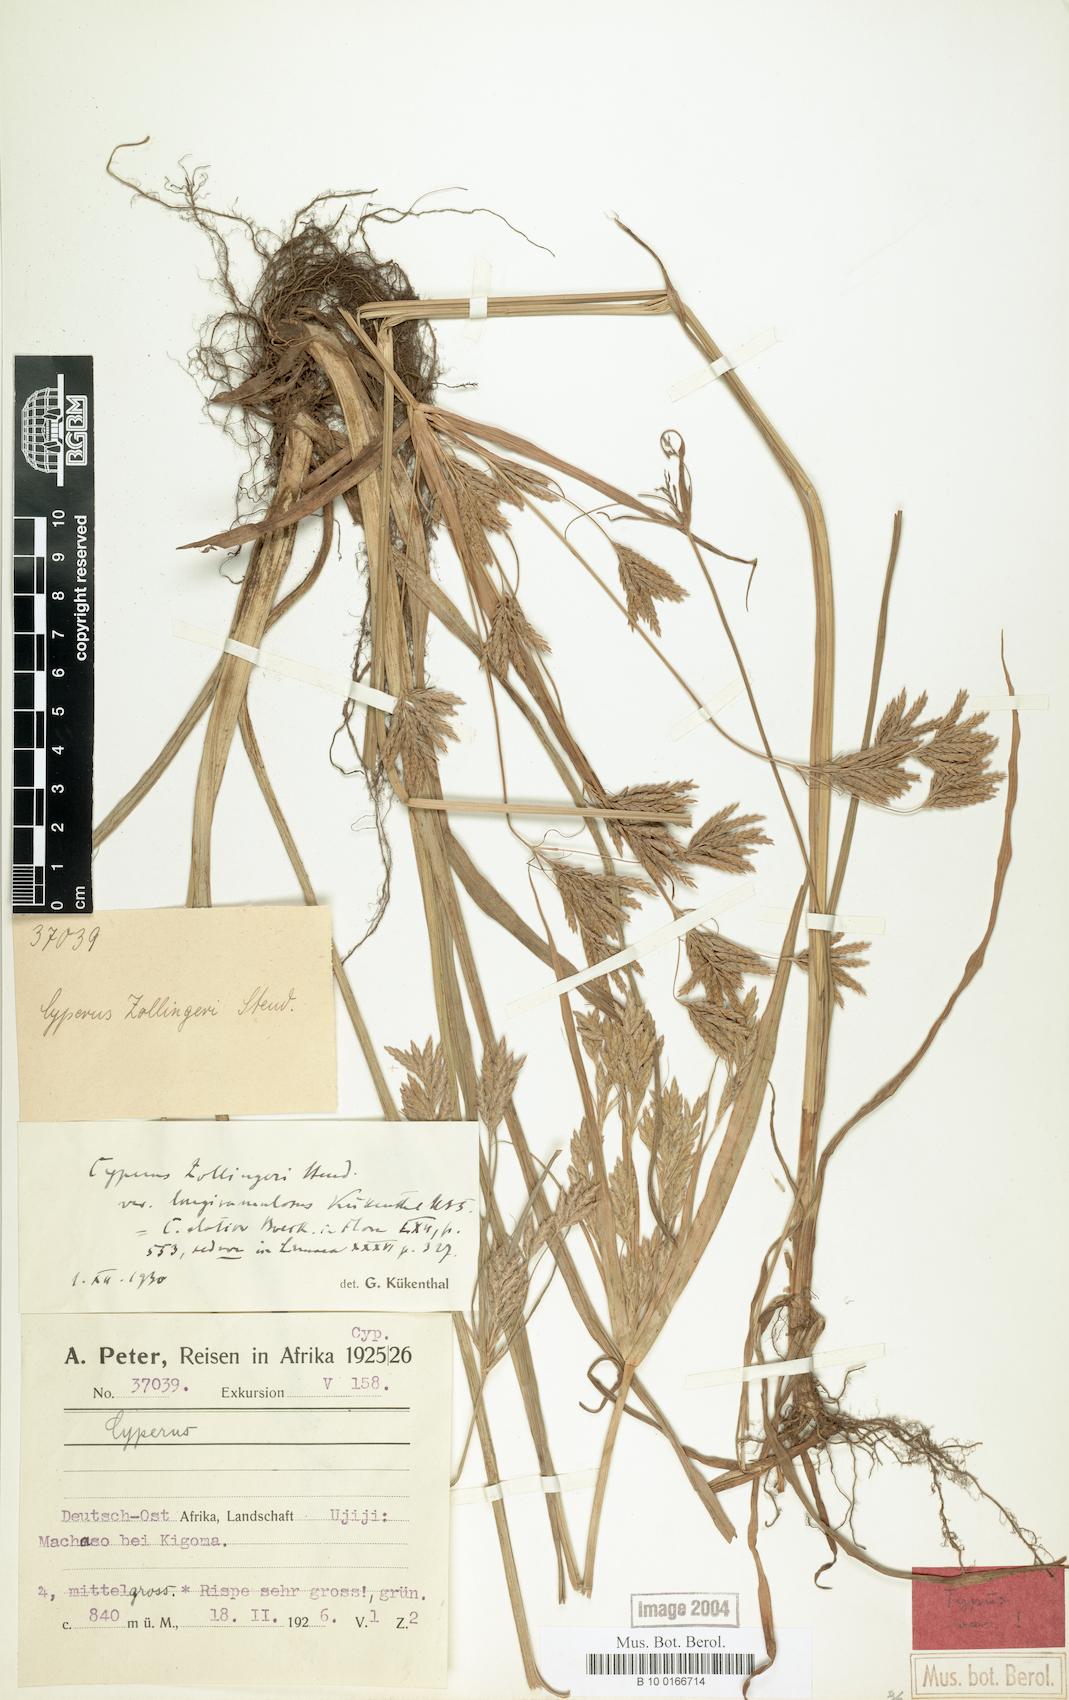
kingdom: Plantae
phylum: Tracheophyta
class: Liliopsida
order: Poales
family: Cyperaceae
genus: Cyperus
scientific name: Cyperus tenuiculmis
